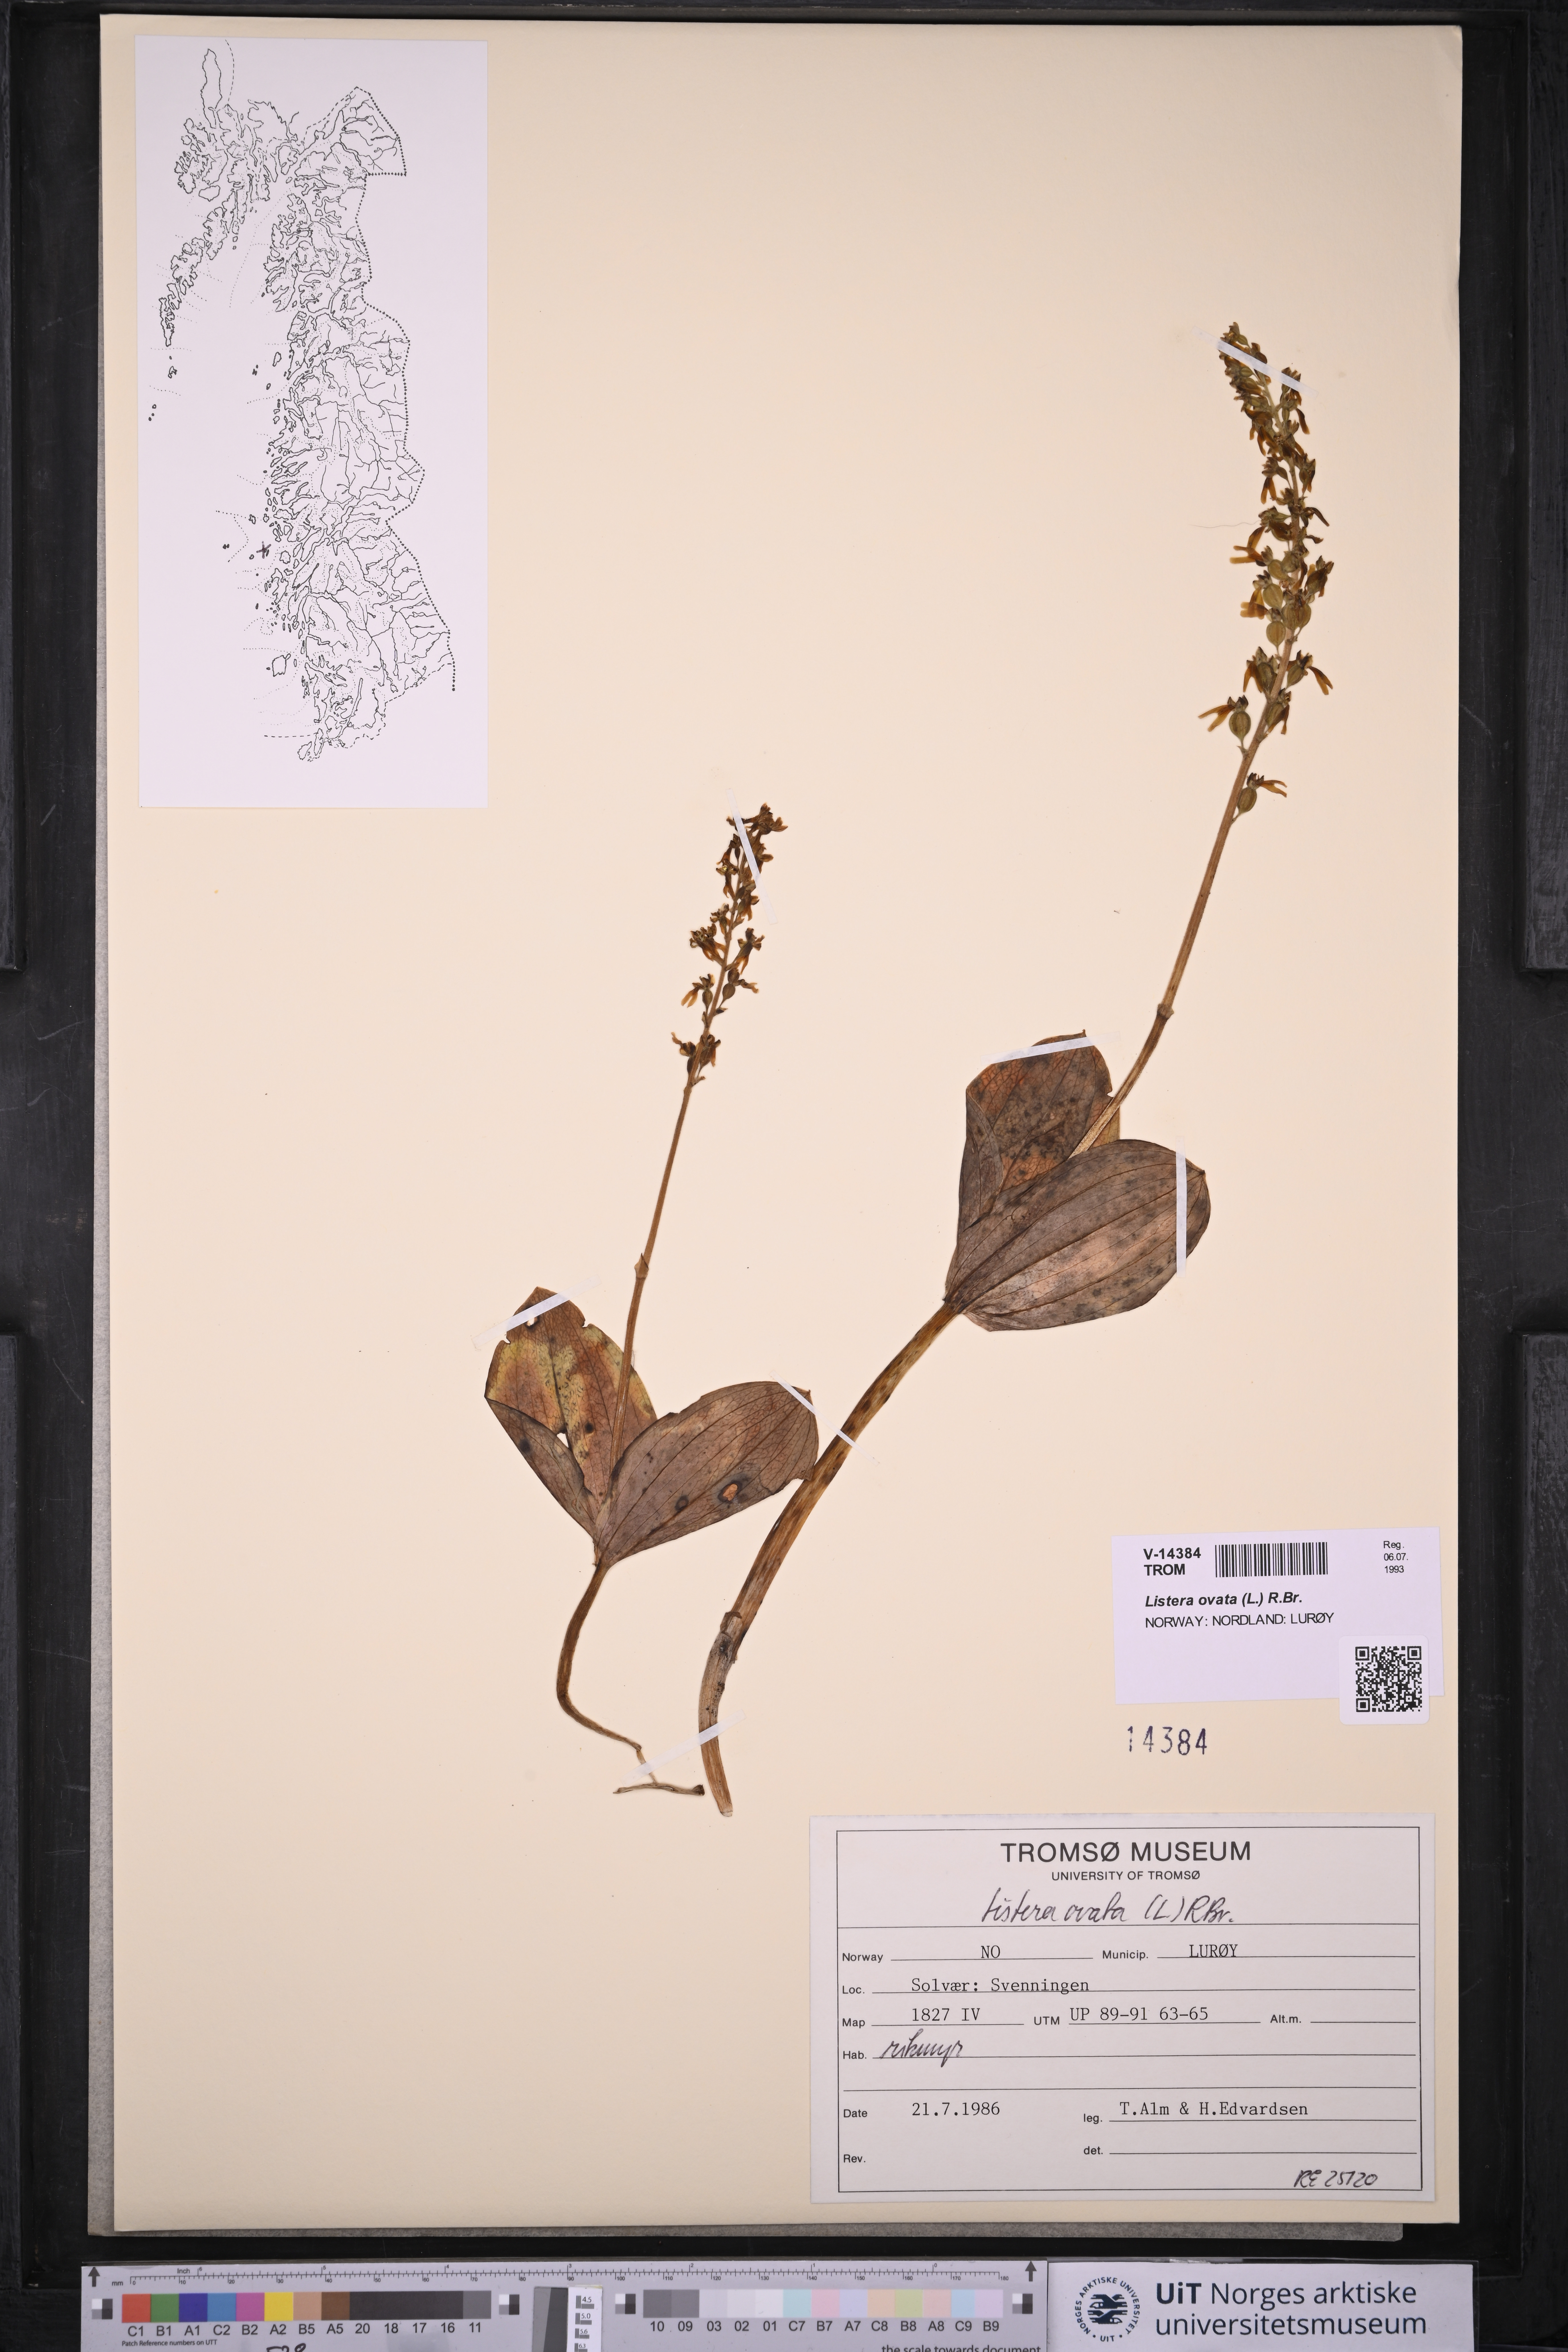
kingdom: Plantae
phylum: Tracheophyta
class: Liliopsida
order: Asparagales
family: Orchidaceae
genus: Neottia
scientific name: Neottia ovata
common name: Common twayblade
